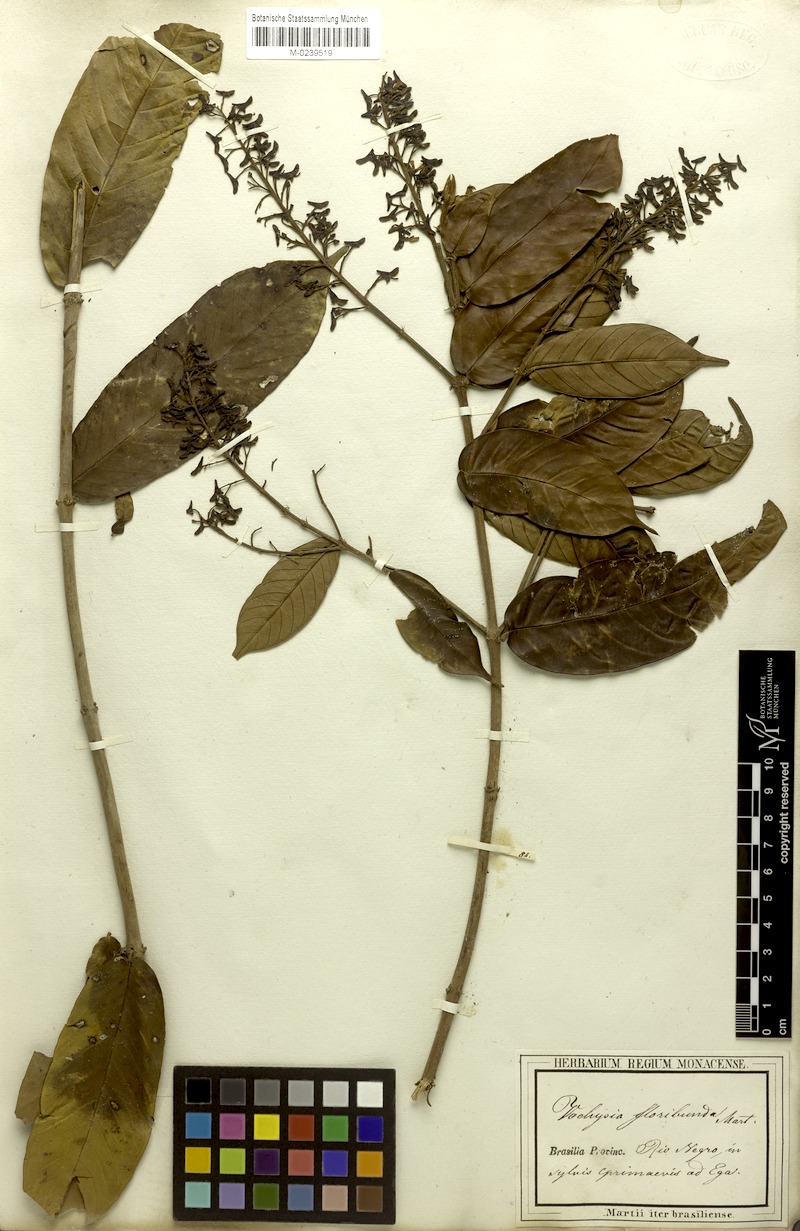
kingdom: Plantae
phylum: Tracheophyta
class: Magnoliopsida
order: Myrtales
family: Vochysiaceae
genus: Vochysia
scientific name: Vochysia floribunda
